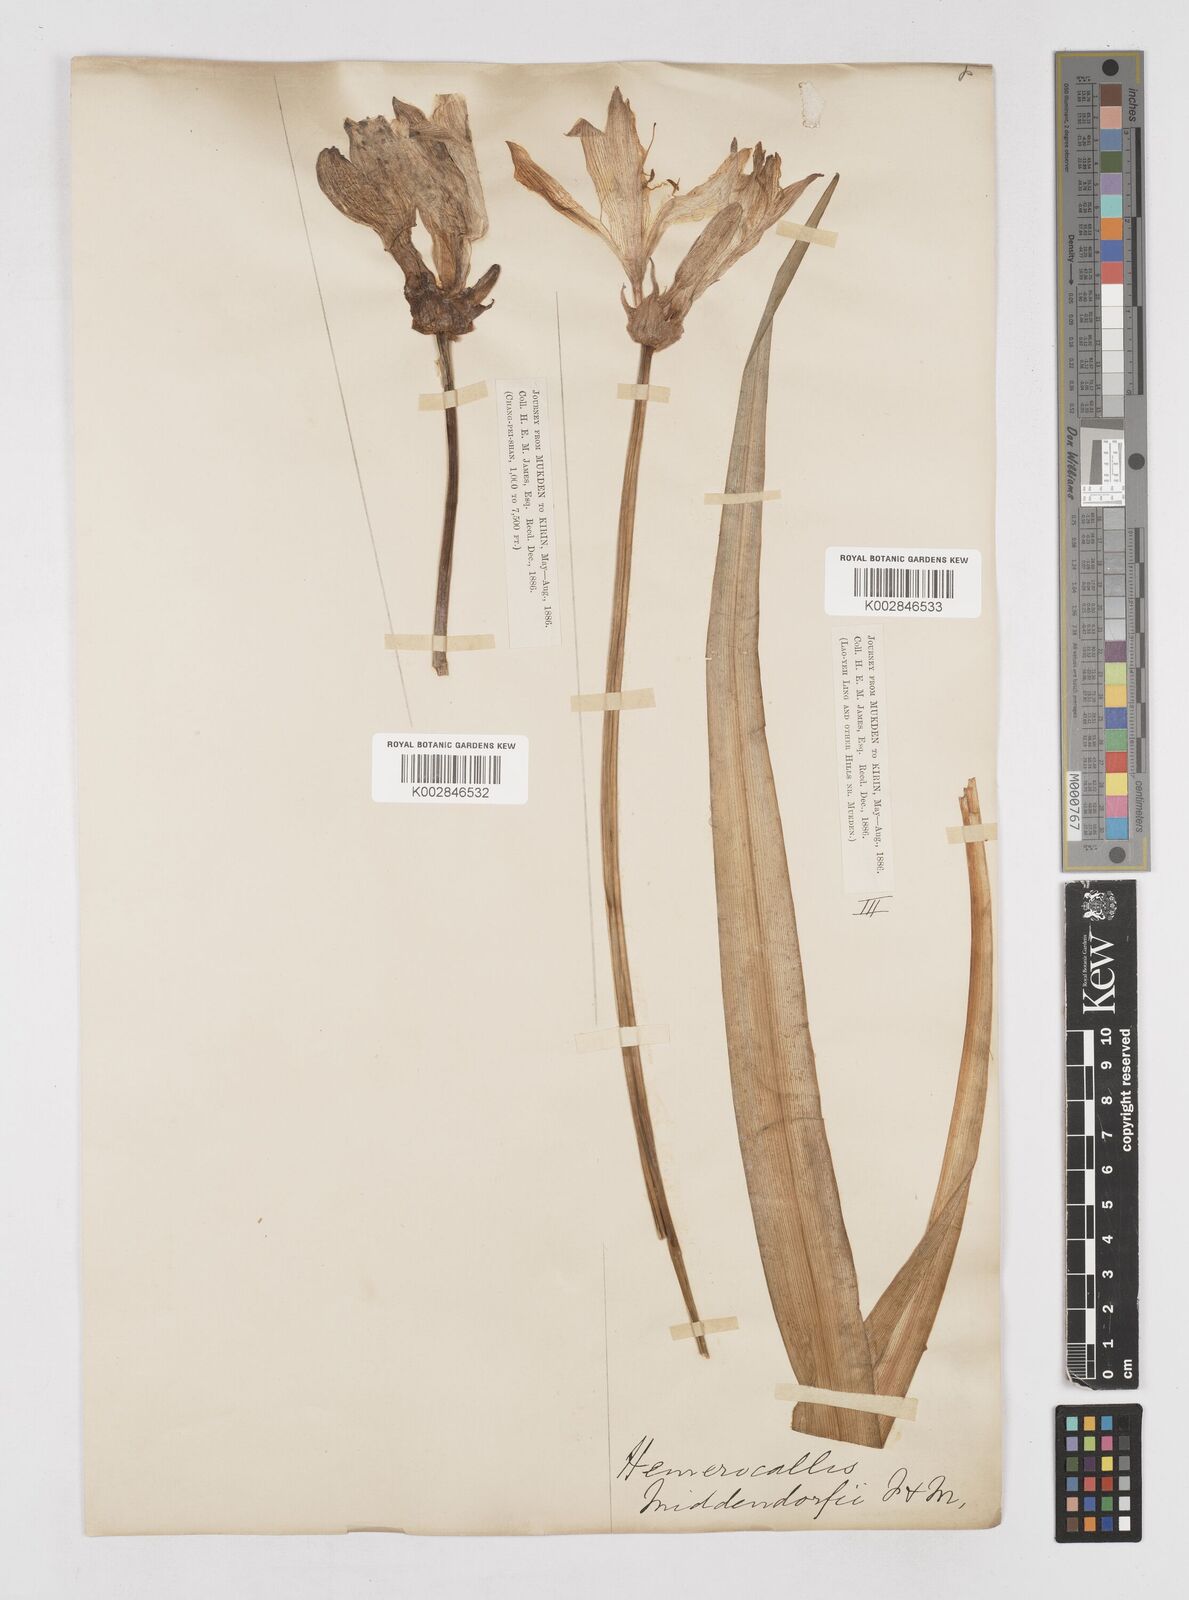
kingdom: Plantae
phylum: Tracheophyta
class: Liliopsida
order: Asparagales
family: Asphodelaceae
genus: Hemerocallis
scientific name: Hemerocallis middendorffii
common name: Amur day-lily
